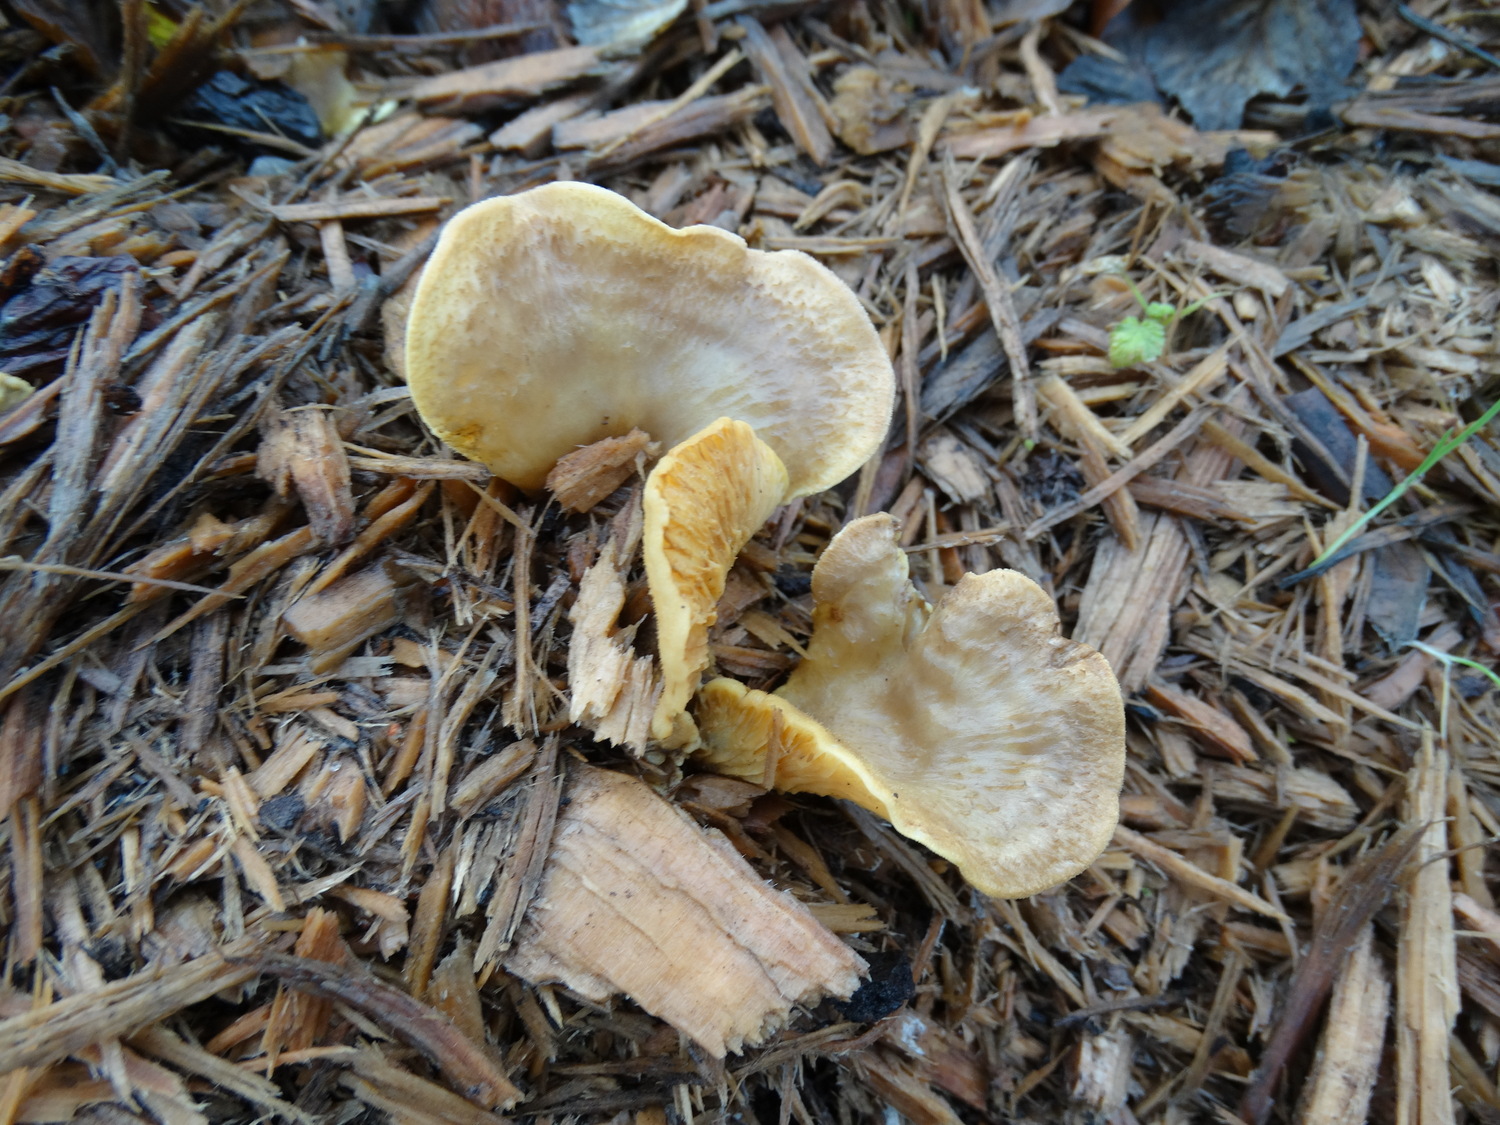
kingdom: Fungi
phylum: Basidiomycota
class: Agaricomycetes
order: Boletales
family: Tapinellaceae
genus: Tapinella
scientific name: Tapinella panuoides
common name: tømmer-viftesvamp
